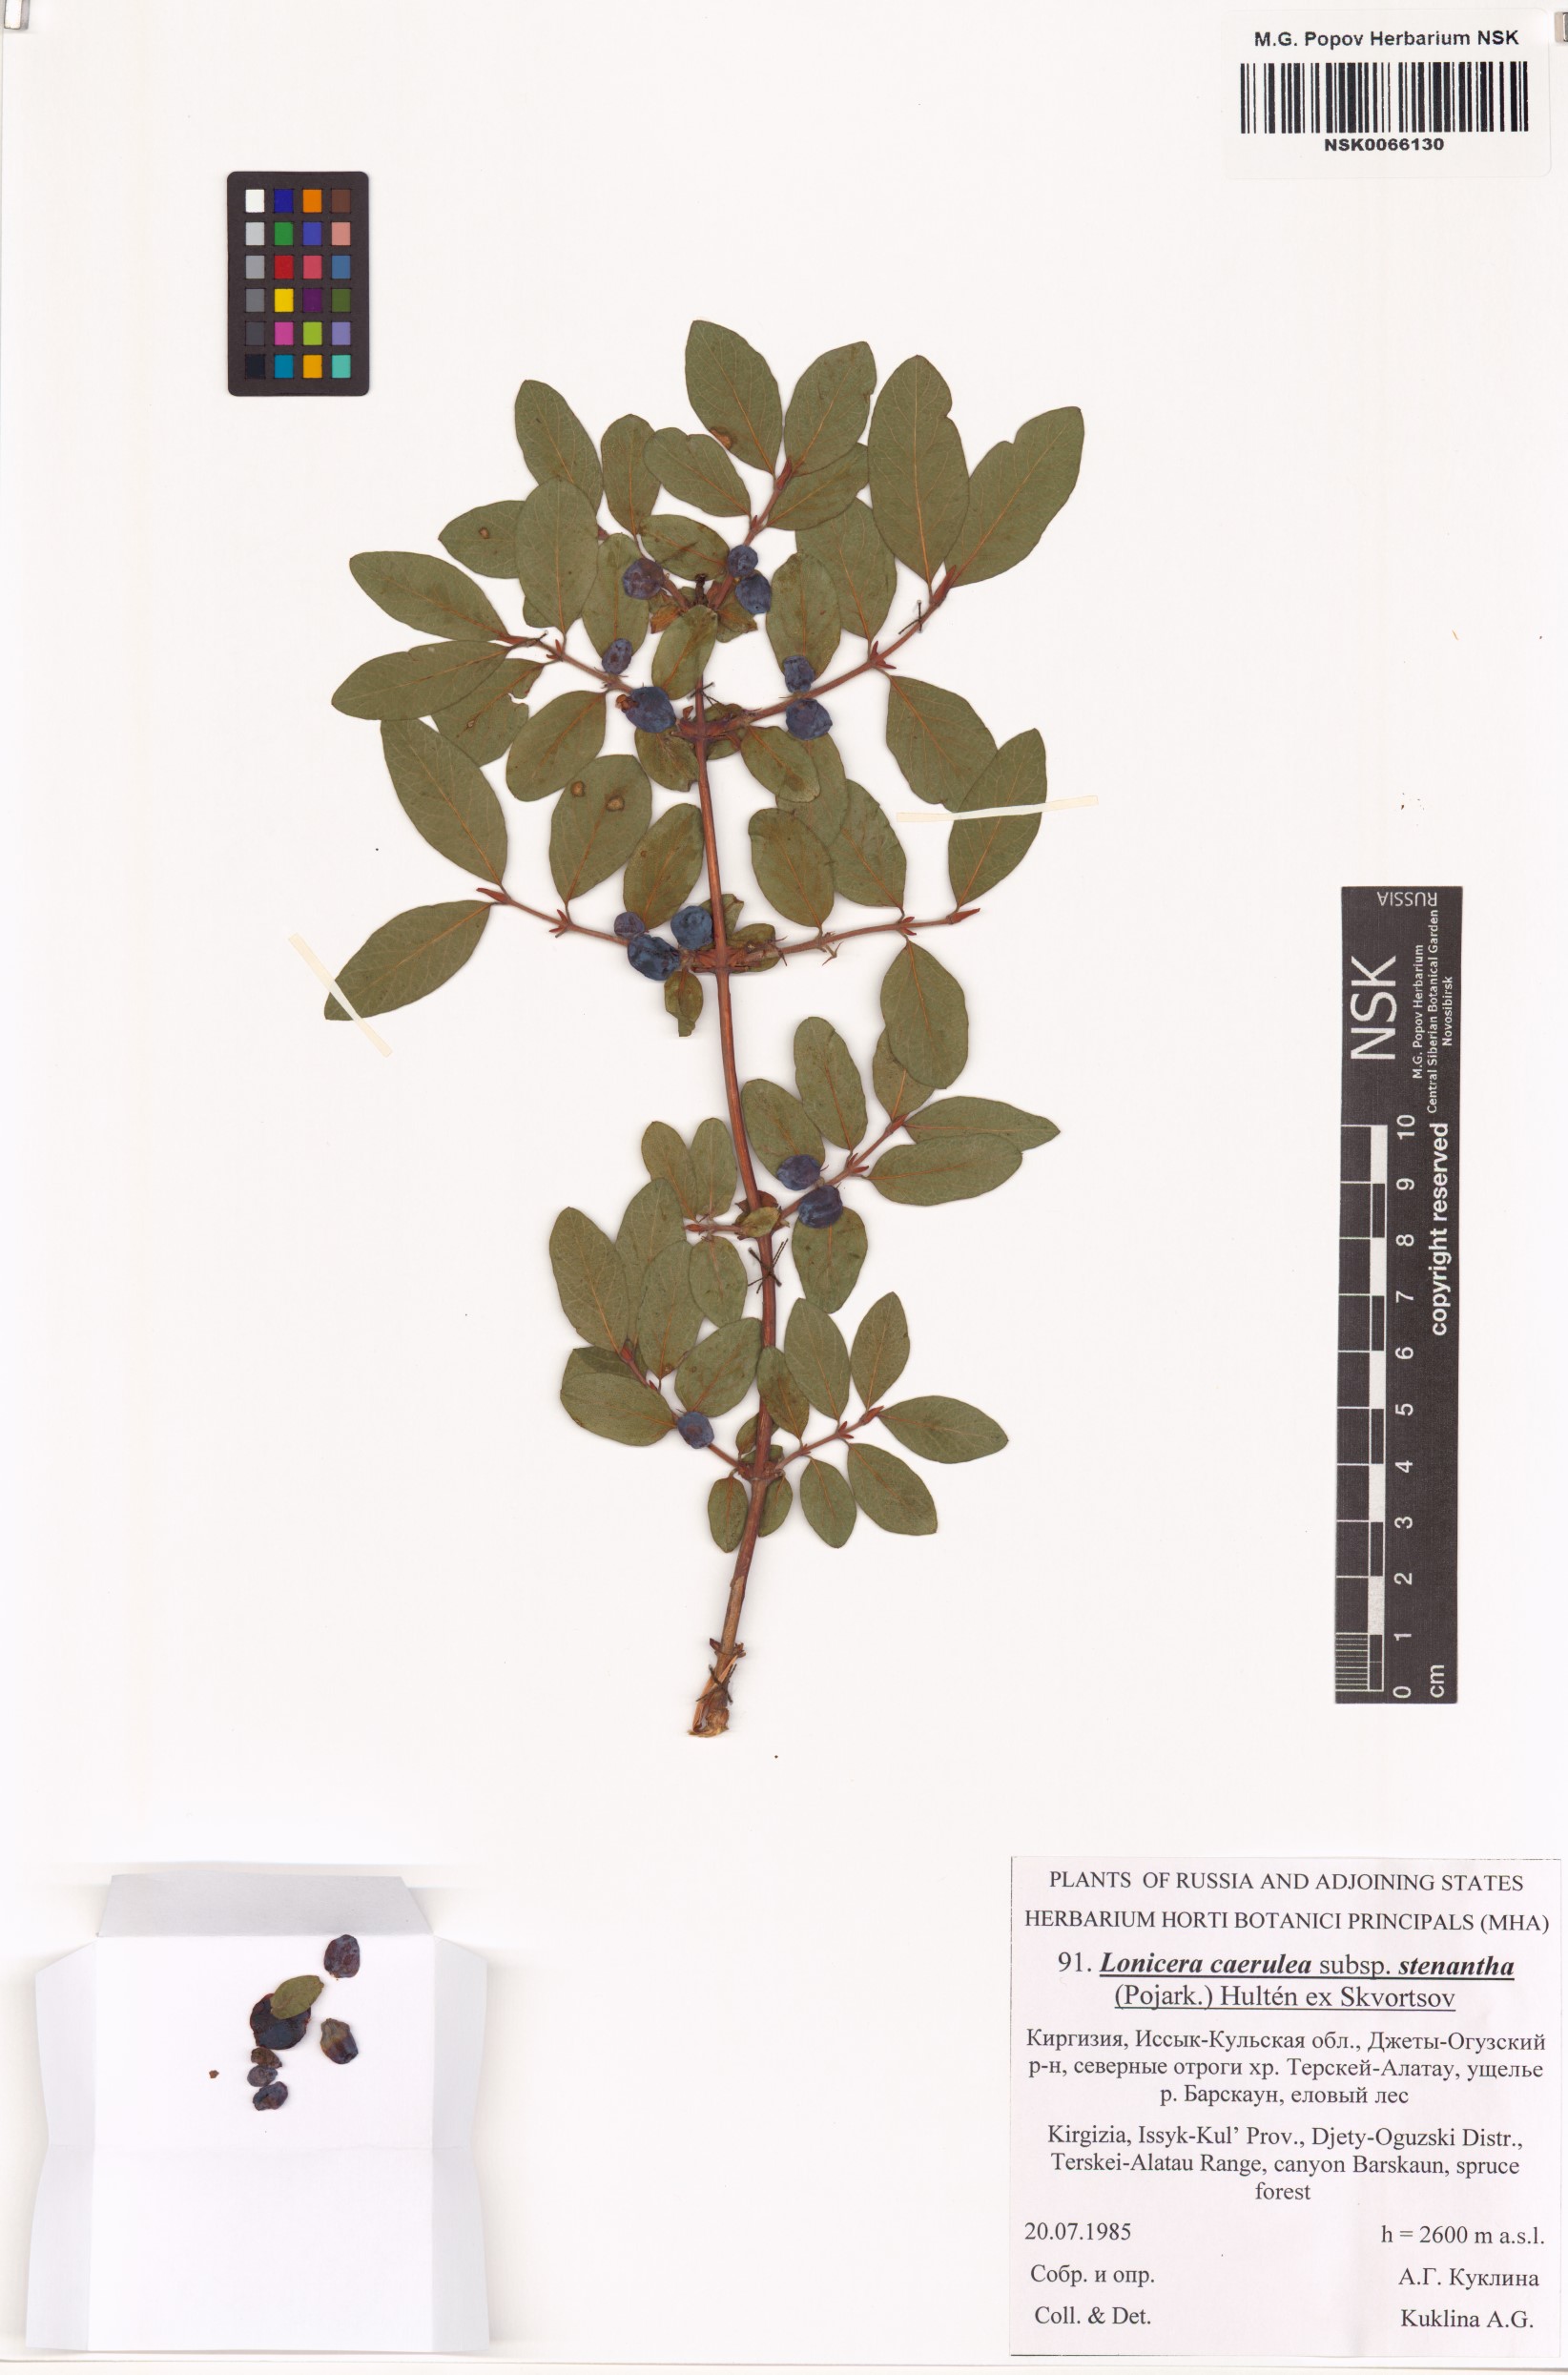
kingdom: Plantae
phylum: Tracheophyta
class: Magnoliopsida
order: Dipsacales
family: Caprifoliaceae
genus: Lonicera
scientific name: Lonicera stenantha
